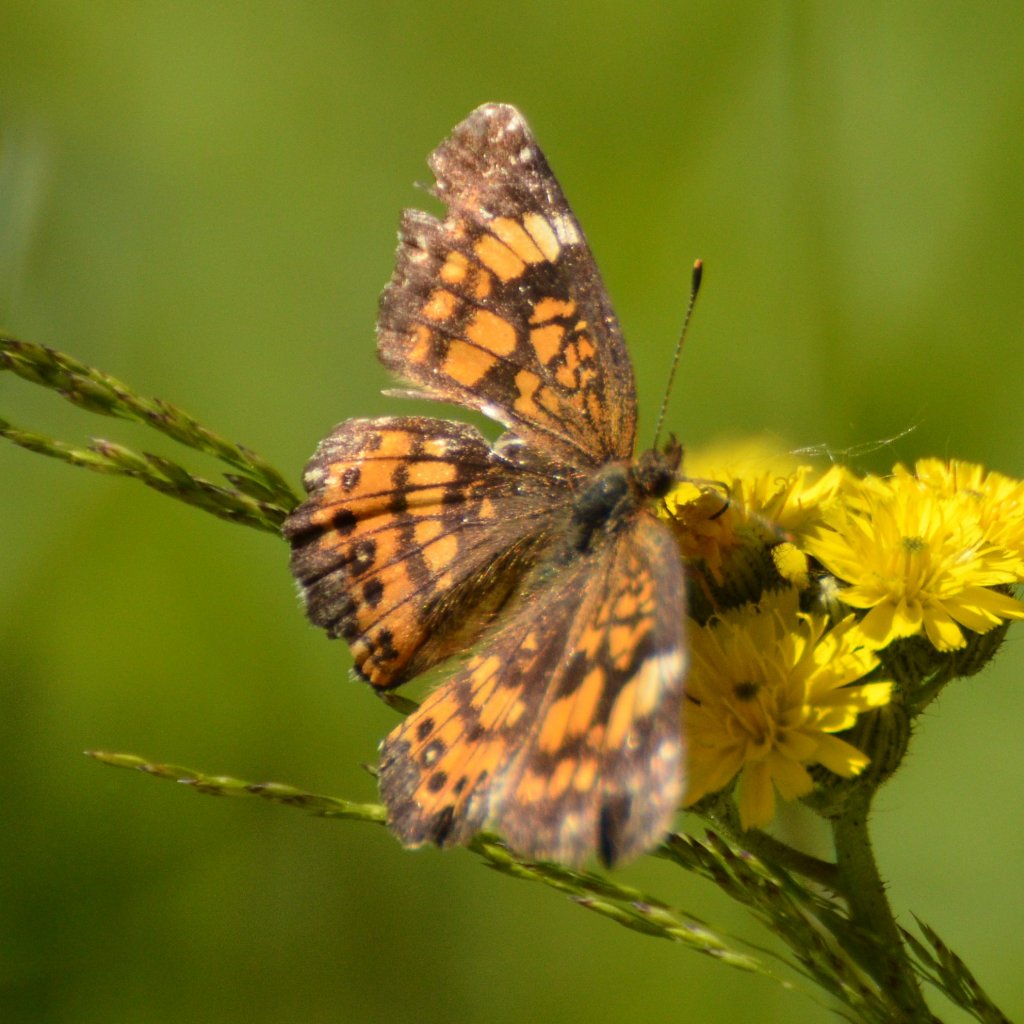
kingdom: Animalia
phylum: Arthropoda
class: Insecta
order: Lepidoptera
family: Nymphalidae
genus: Chlosyne
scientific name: Chlosyne harrisii
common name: Harris's Checkerspot
